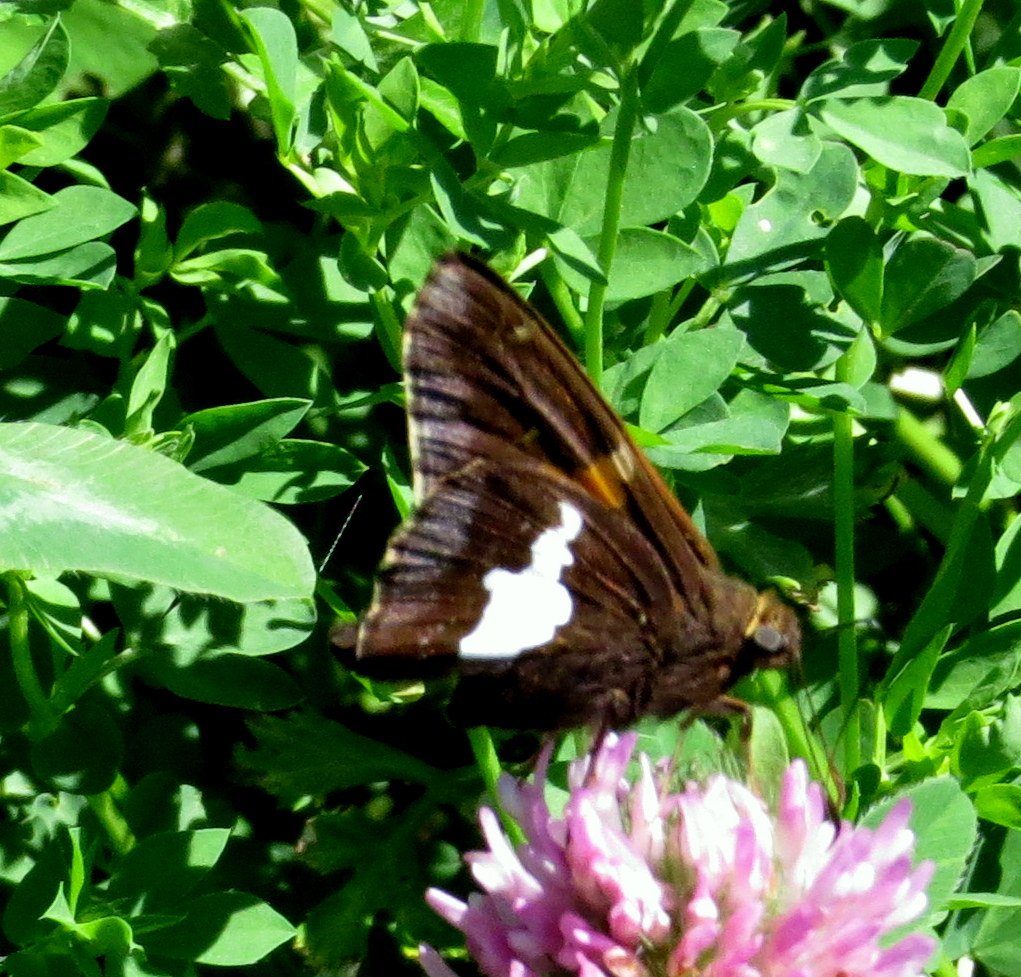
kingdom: Animalia
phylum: Arthropoda
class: Insecta
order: Lepidoptera
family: Hesperiidae
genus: Epargyreus
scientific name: Epargyreus clarus
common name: Silver-spotted Skipper
